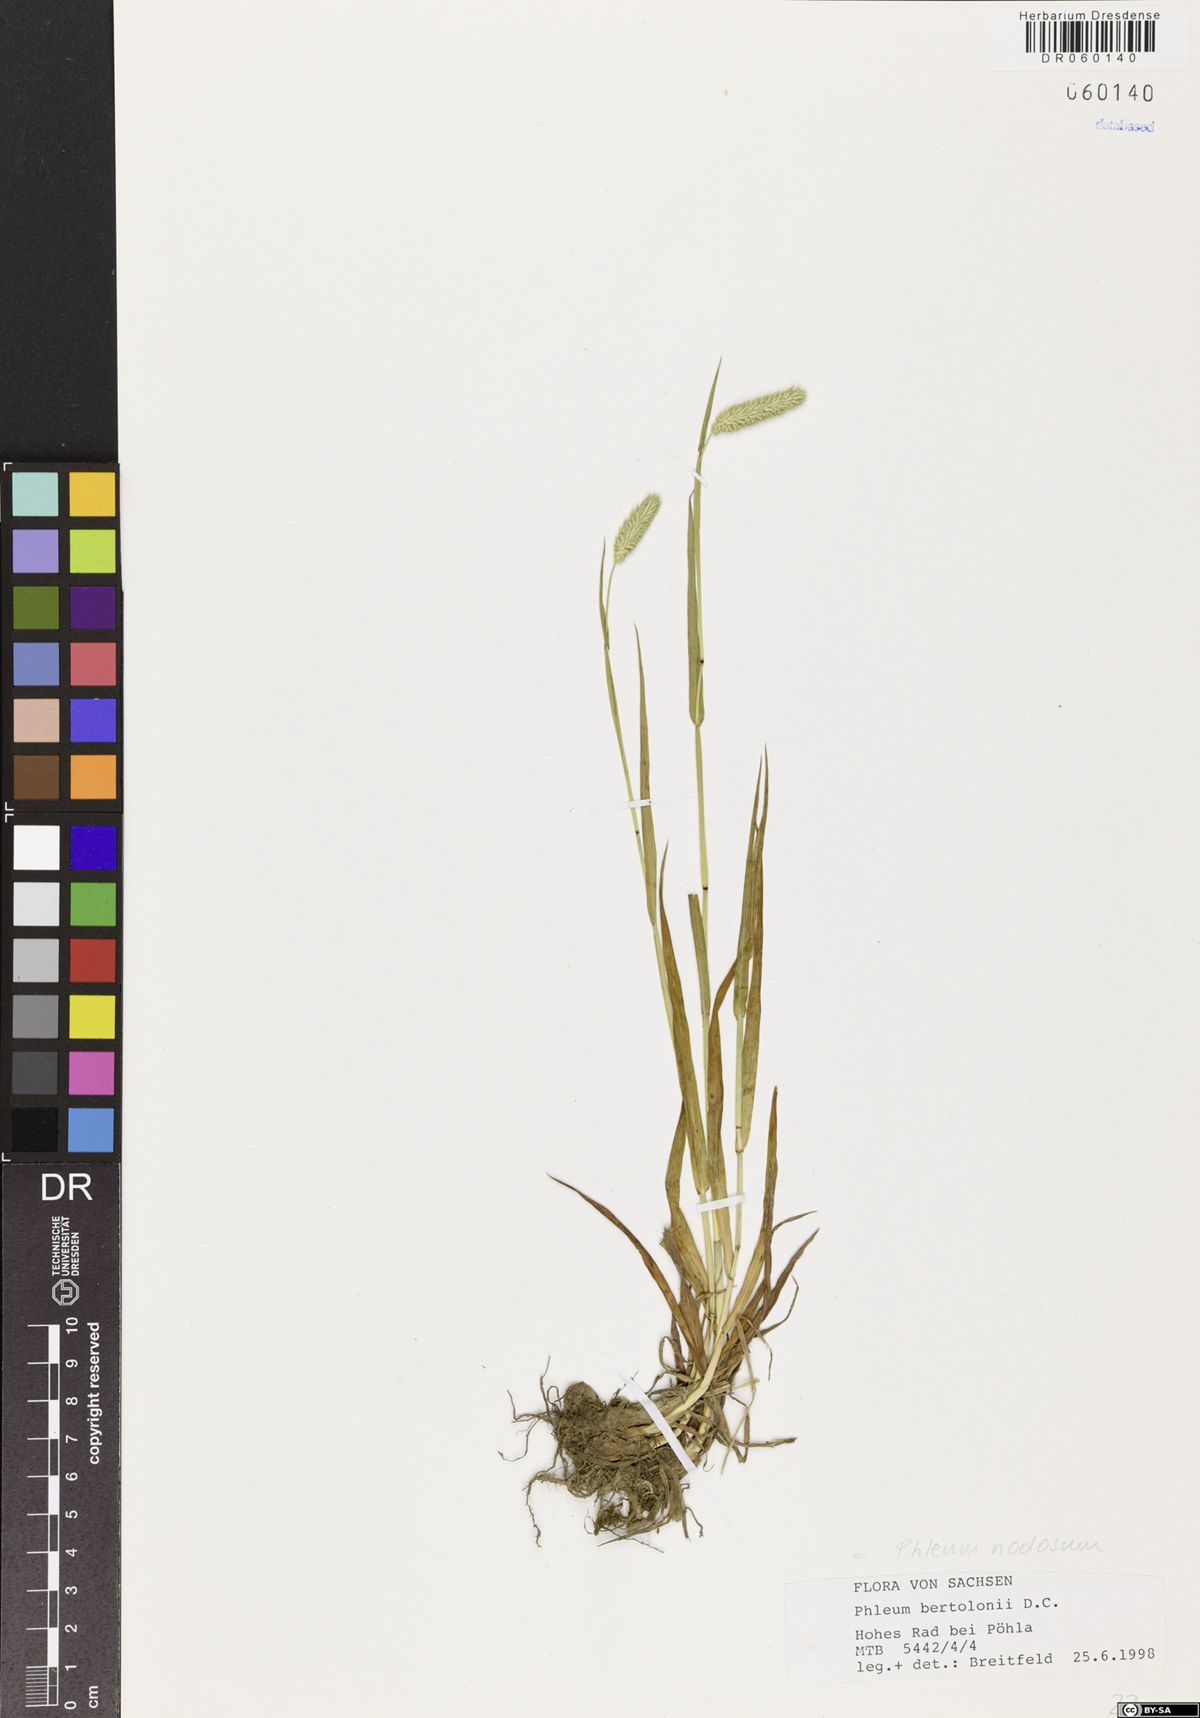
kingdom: Plantae
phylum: Tracheophyta
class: Liliopsida
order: Poales
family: Poaceae
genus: Phleum
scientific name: Phleum pratense
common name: Timothy grass
